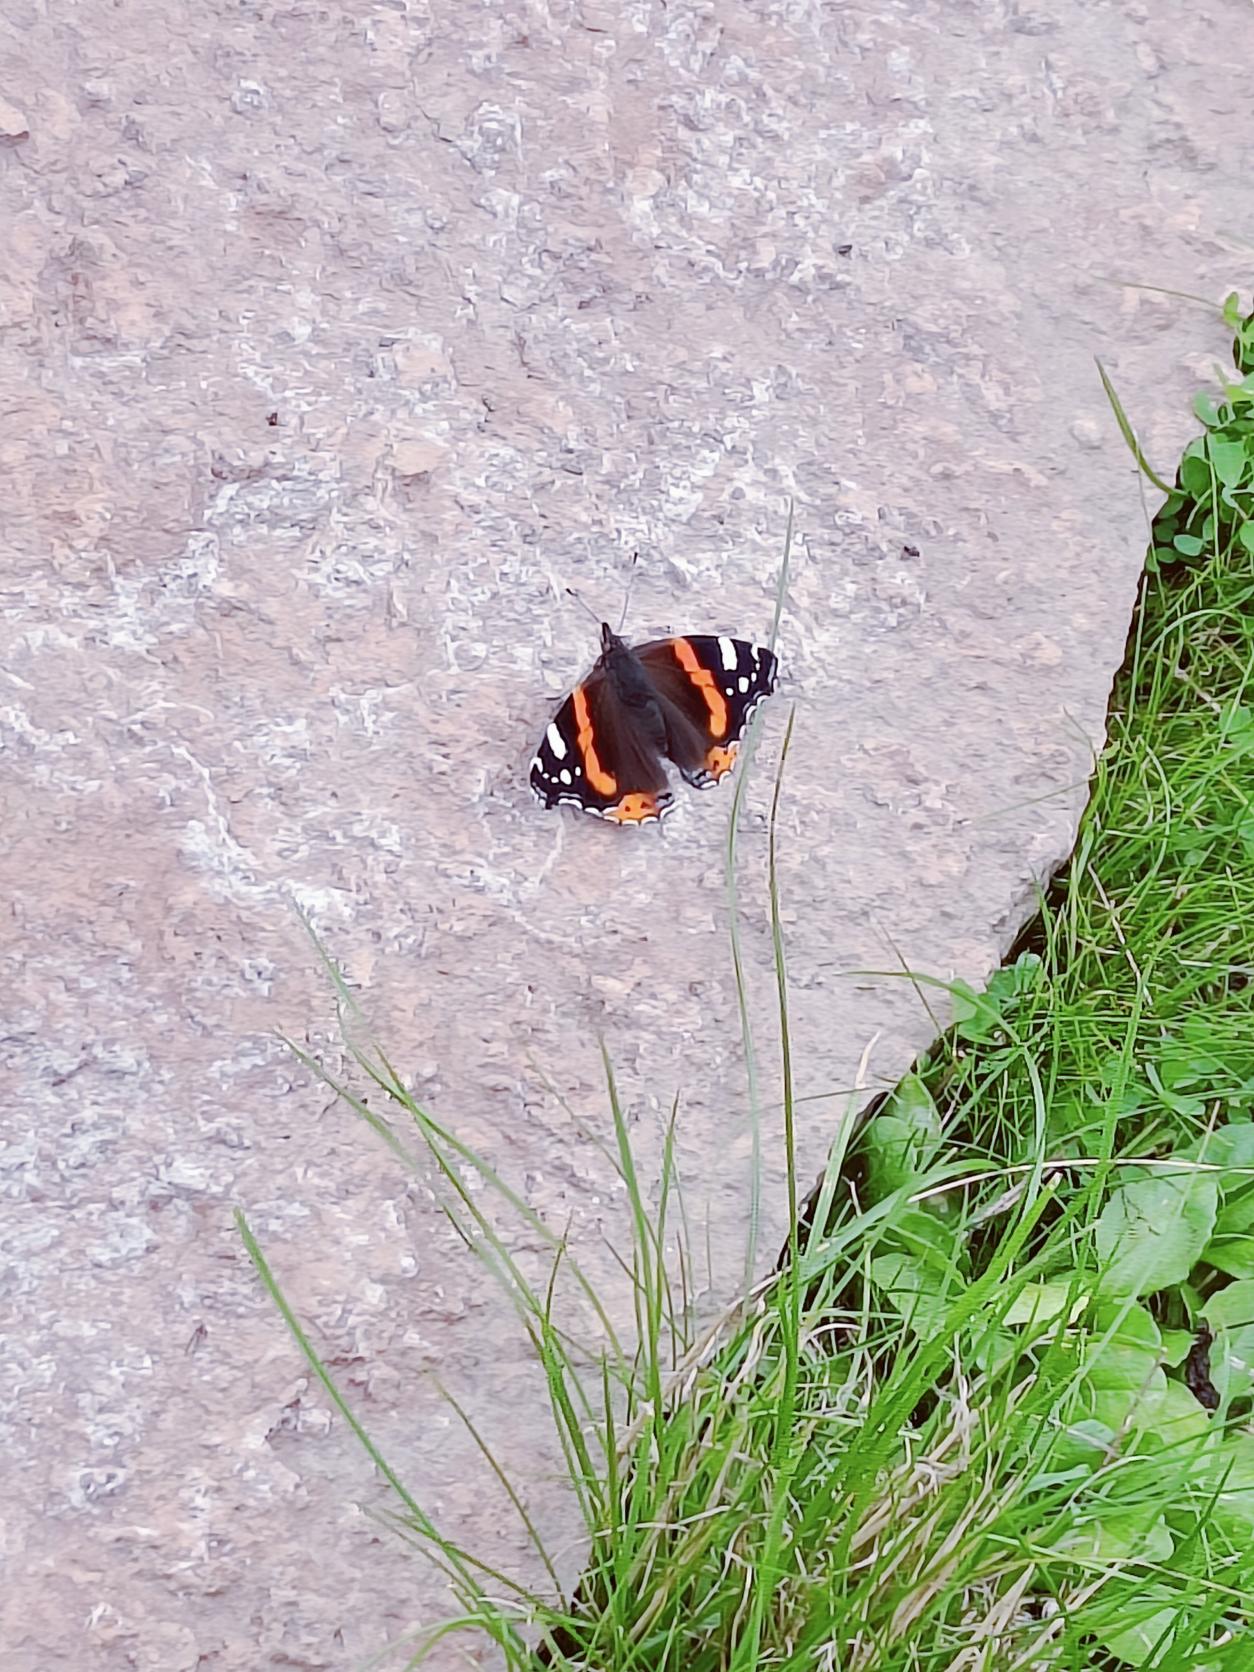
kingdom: Animalia
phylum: Arthropoda
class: Insecta
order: Lepidoptera
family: Nymphalidae
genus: Vanessa
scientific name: Vanessa atalanta
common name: Admiral
